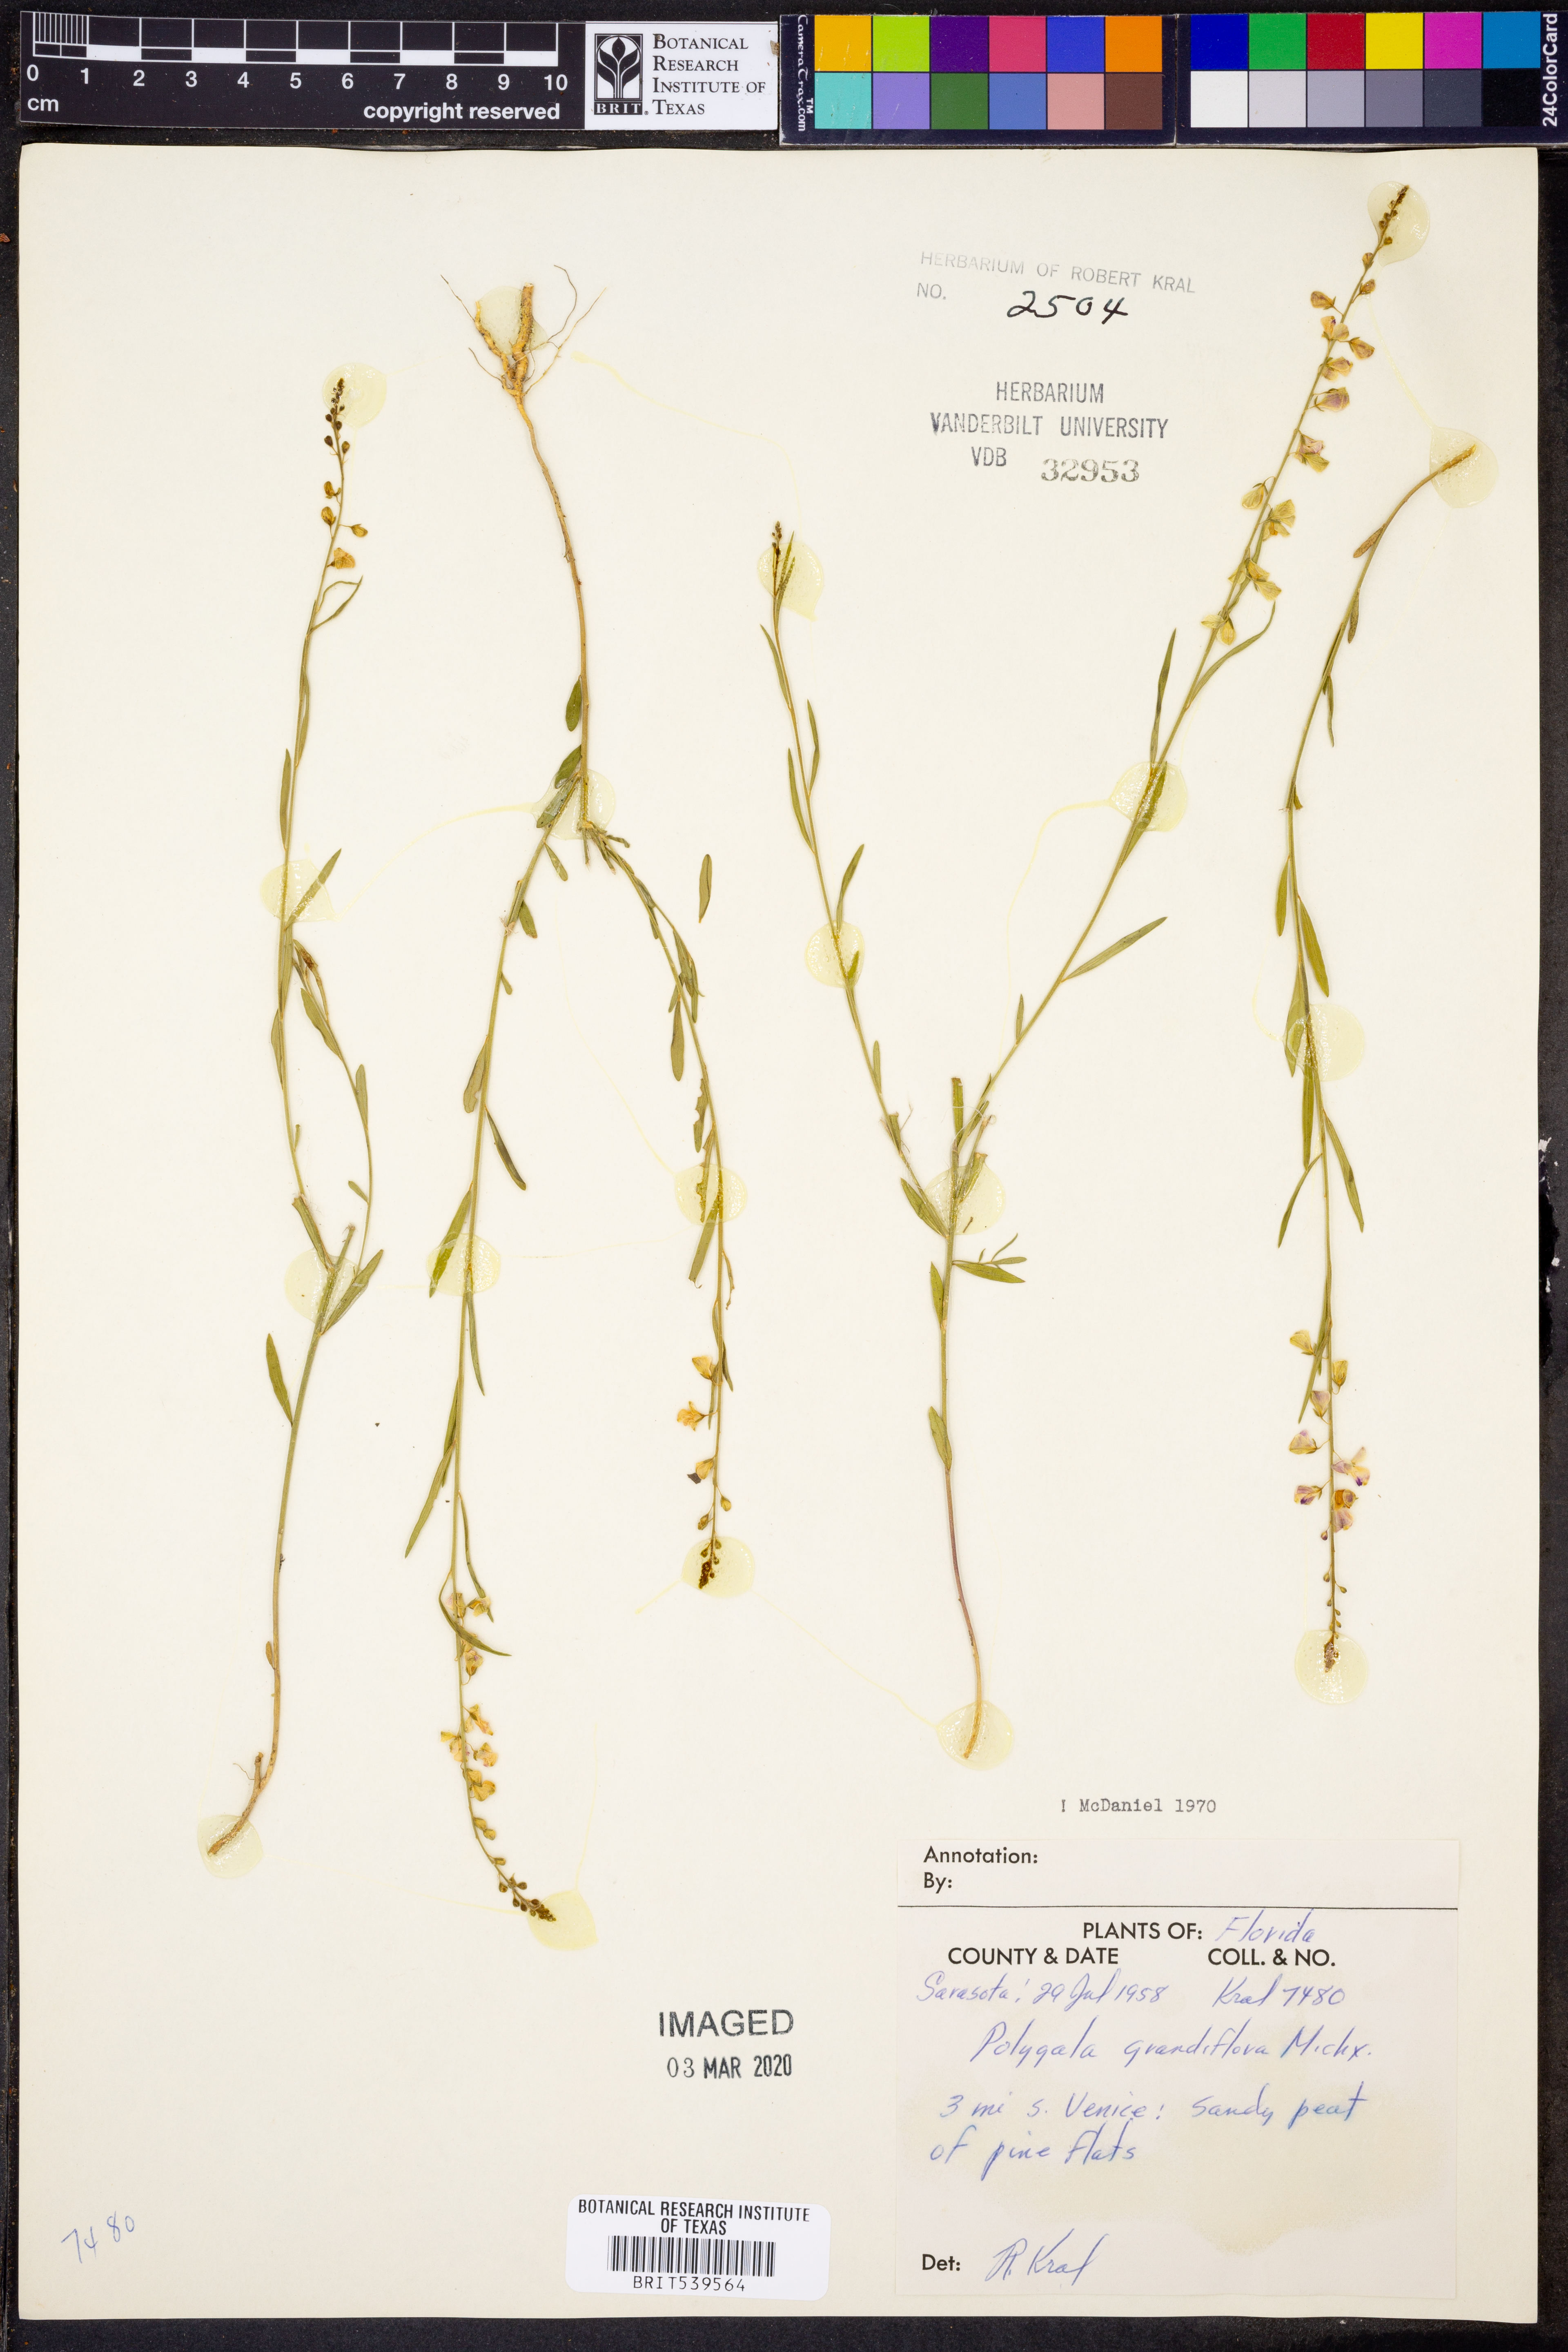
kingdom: Plantae
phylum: Tracheophyta
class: Magnoliopsida
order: Fabales
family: Polygalaceae
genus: Asemeia
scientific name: Asemeia grandiflora
